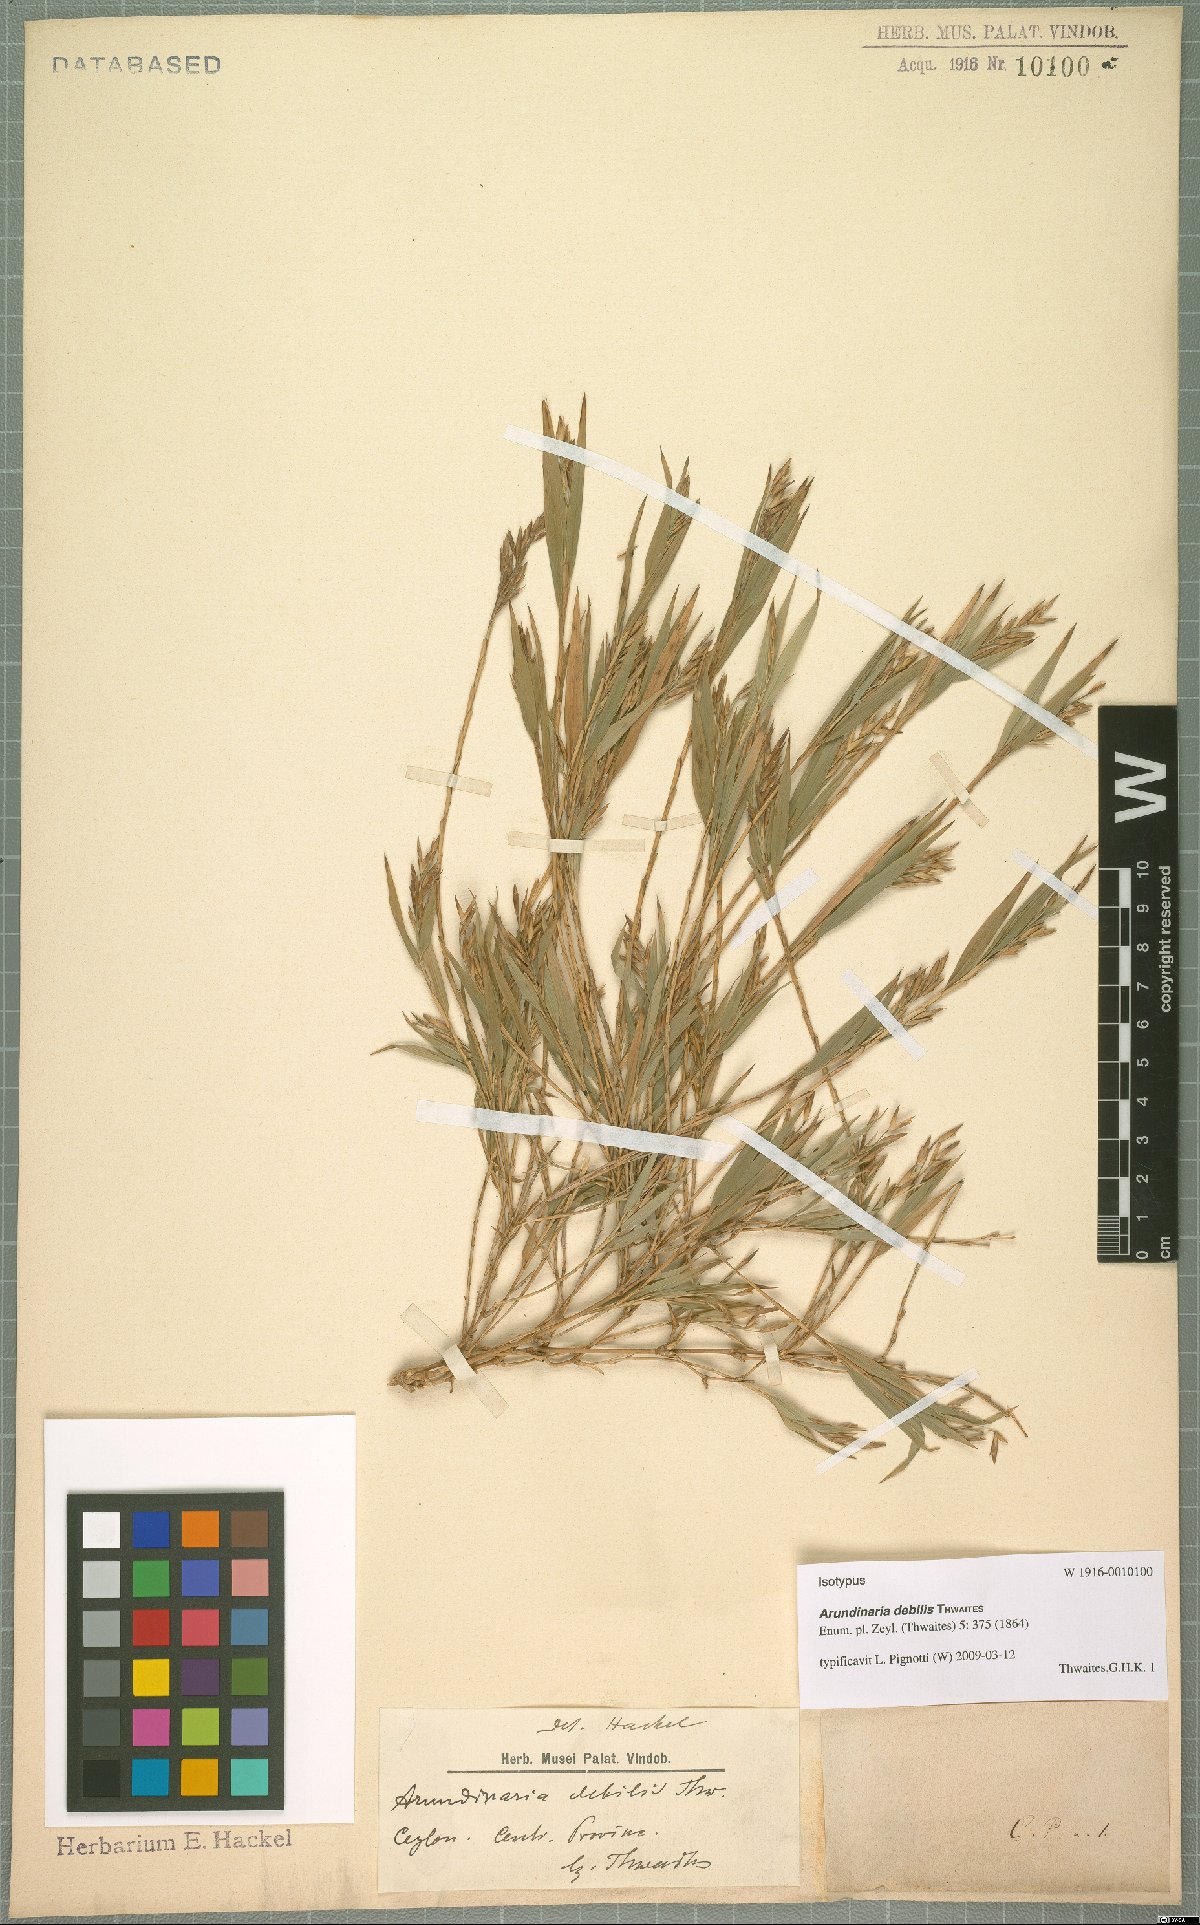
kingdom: Plantae
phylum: Tracheophyta
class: Liliopsida
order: Poales
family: Poaceae
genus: Kuruna
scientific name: Kuruna debilis
